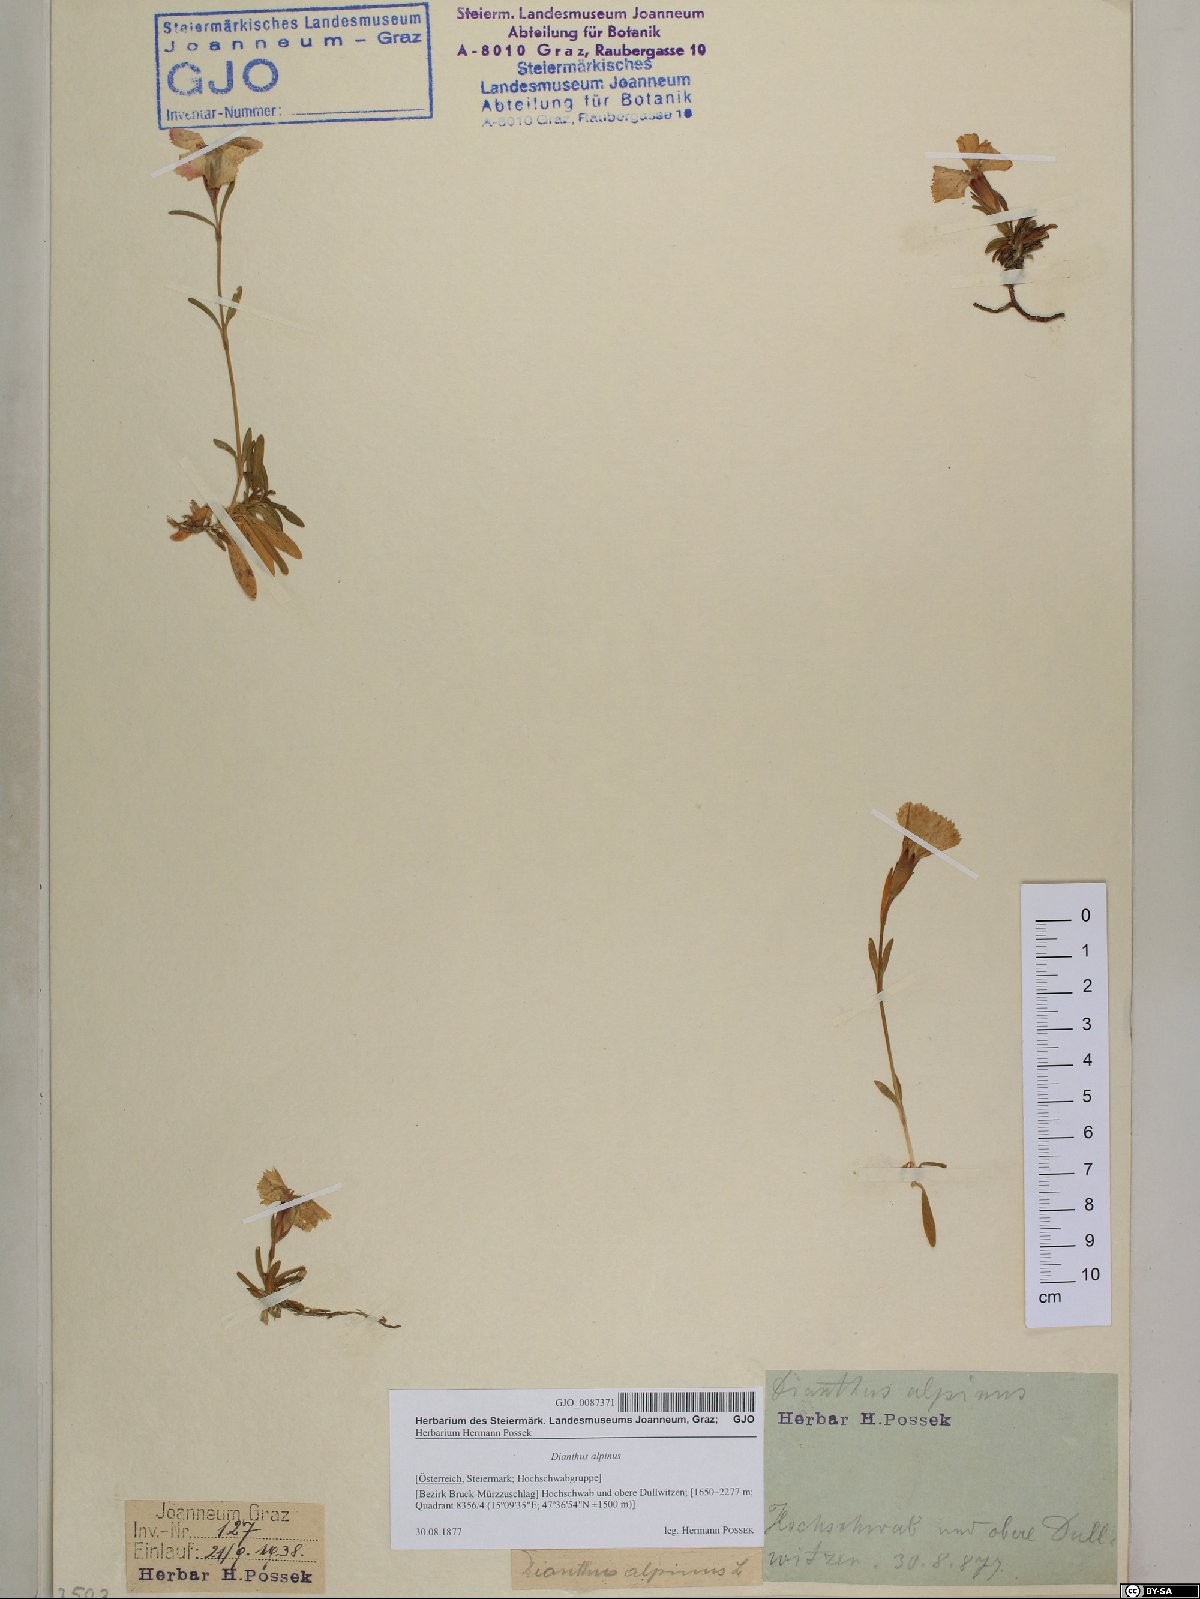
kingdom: Plantae
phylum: Tracheophyta
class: Magnoliopsida
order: Caryophyllales
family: Caryophyllaceae
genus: Dianthus
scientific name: Dianthus alpinus
